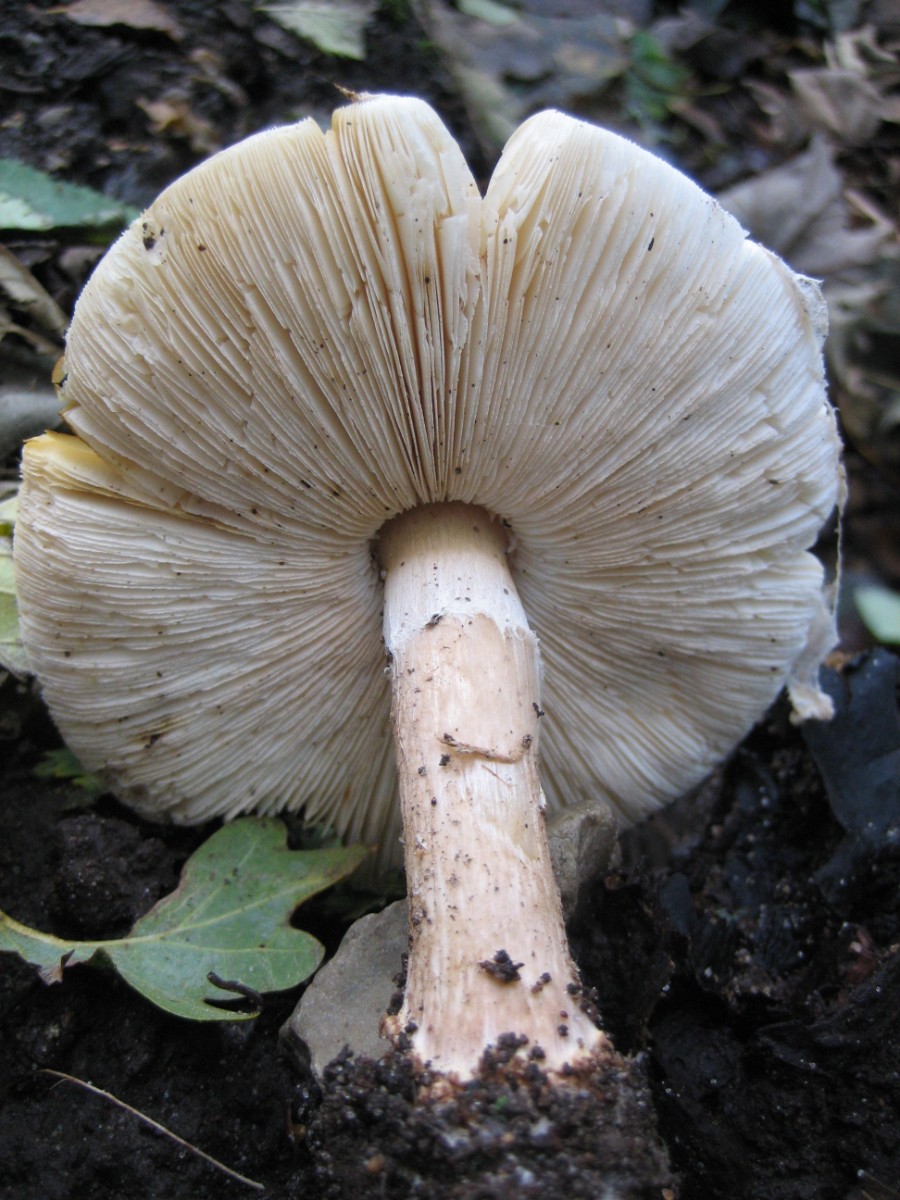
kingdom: Fungi
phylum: Basidiomycota
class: Agaricomycetes
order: Agaricales
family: Agaricaceae
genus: Echinoderma
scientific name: Echinoderma asperum
